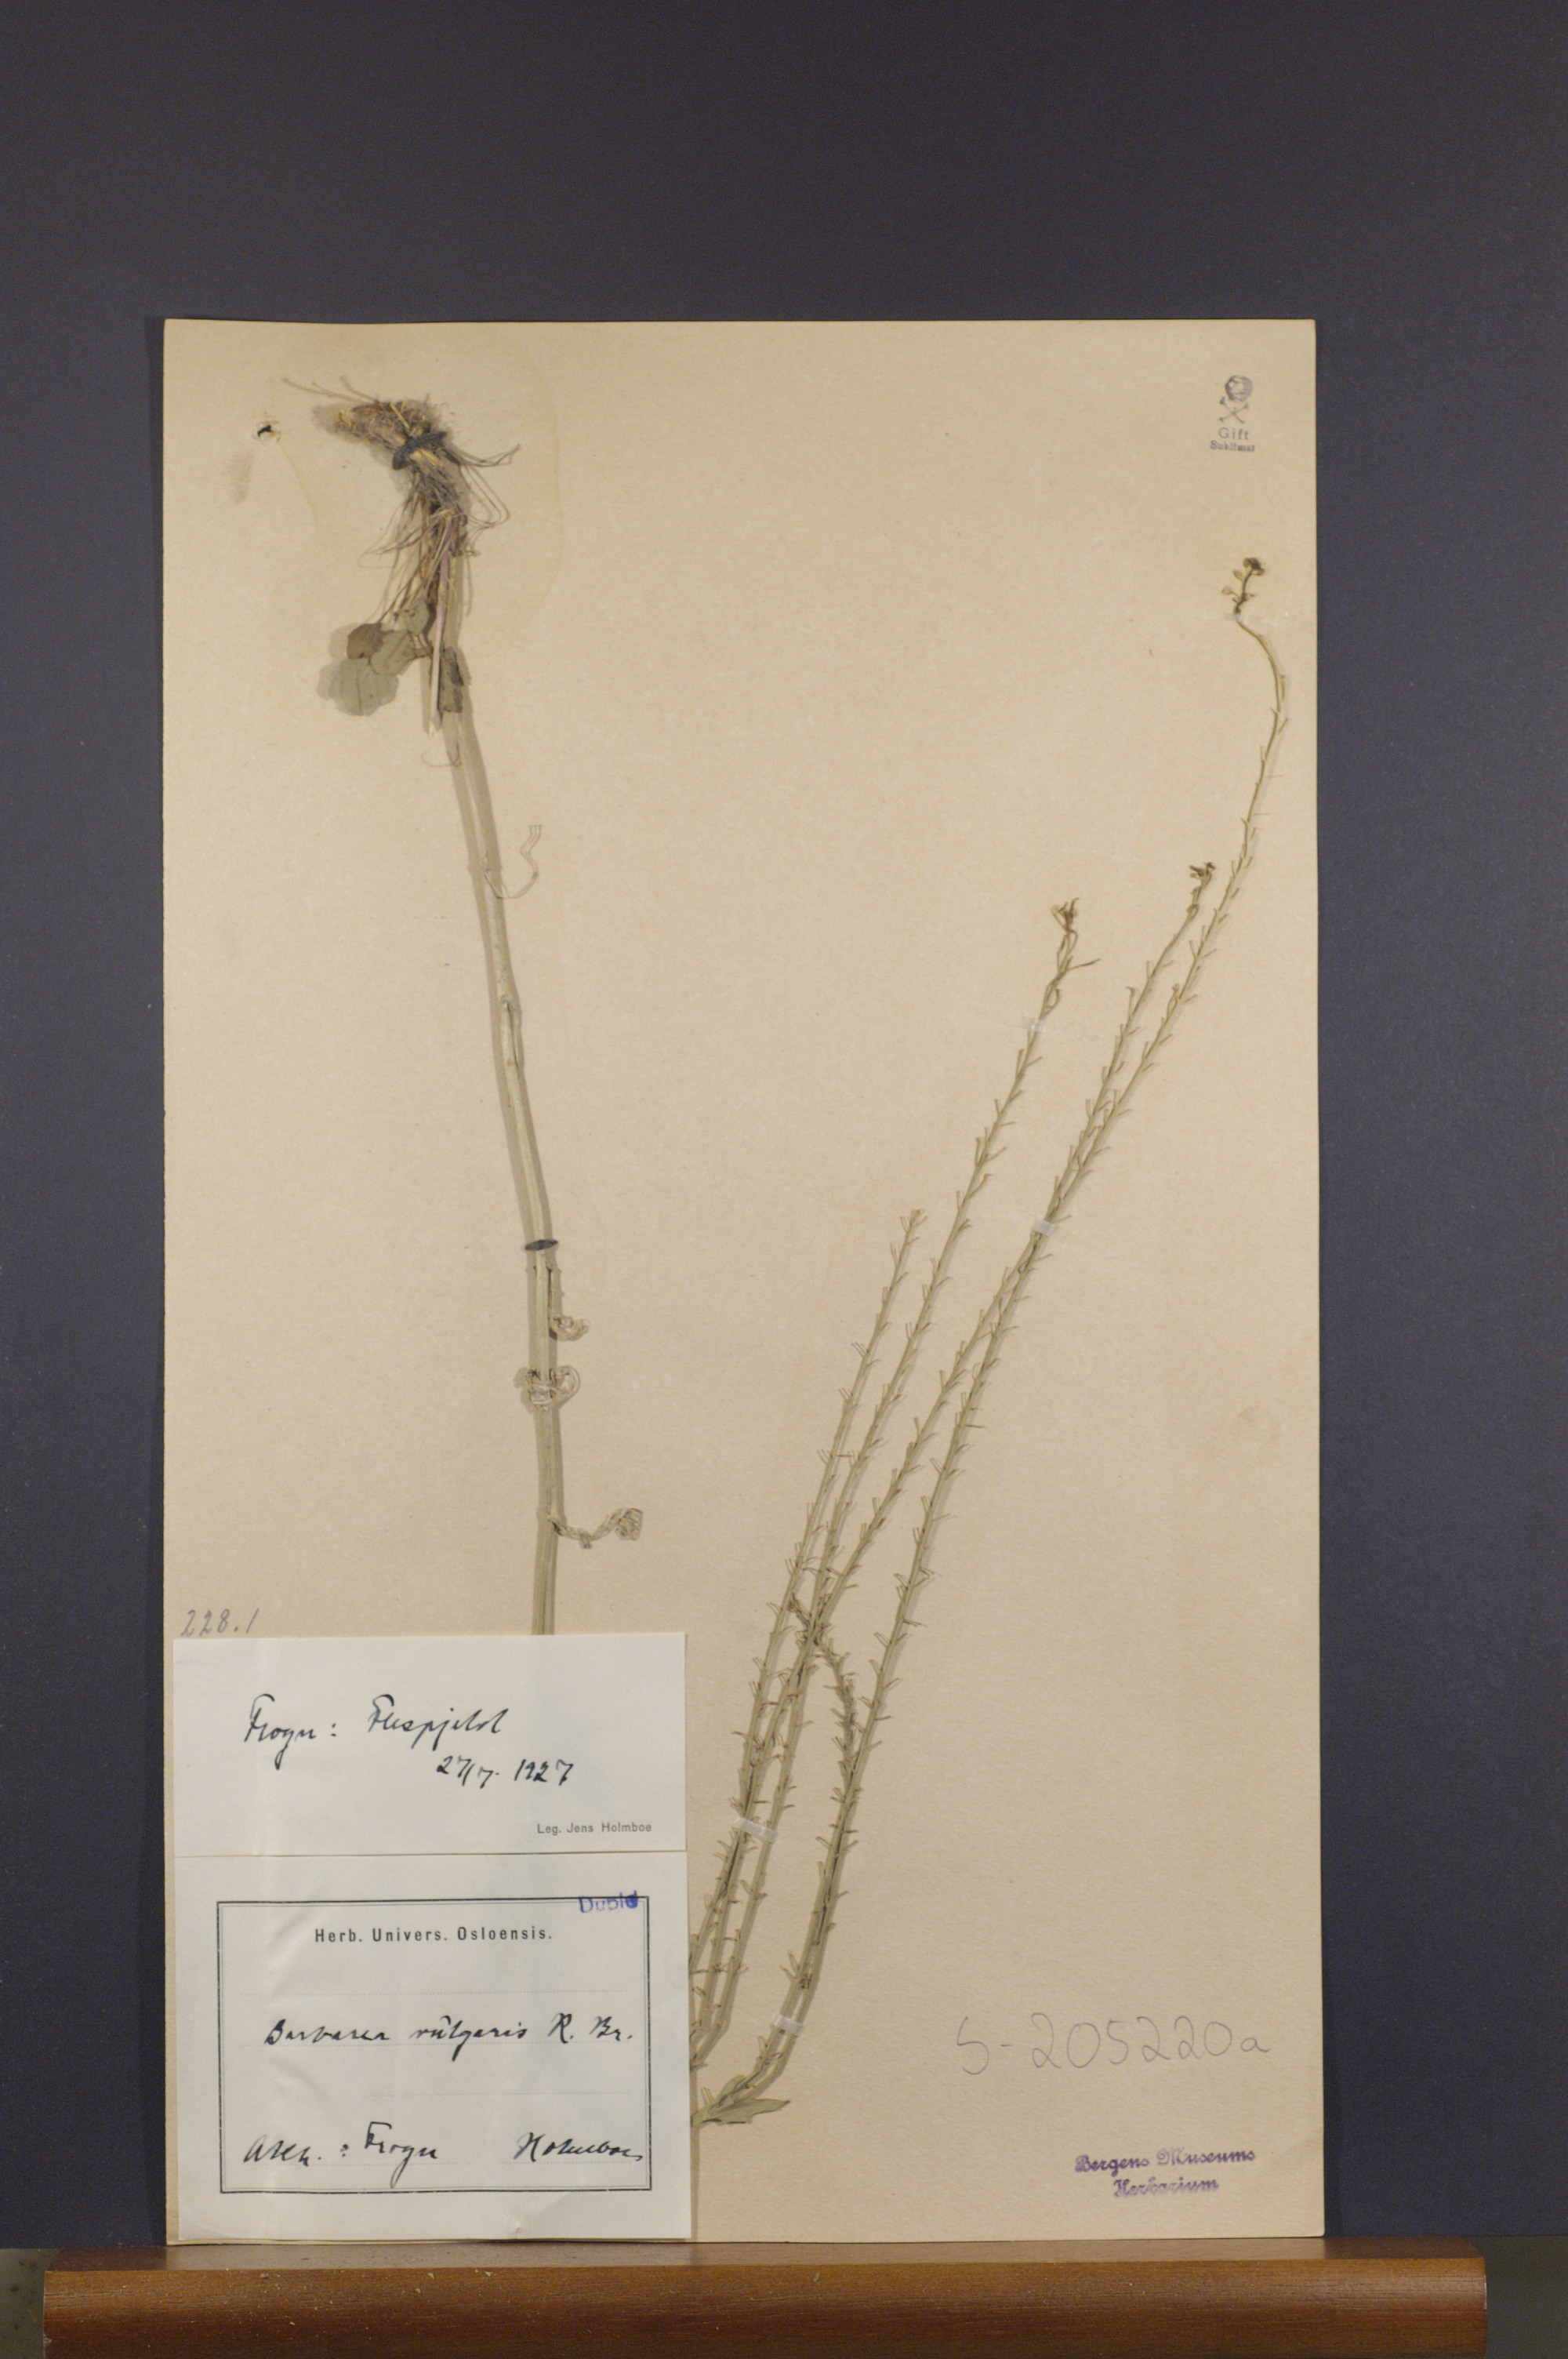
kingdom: Plantae
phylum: Tracheophyta
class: Magnoliopsida
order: Brassicales
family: Brassicaceae
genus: Barbarea
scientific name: Barbarea vulgaris
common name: Cressy-greens
